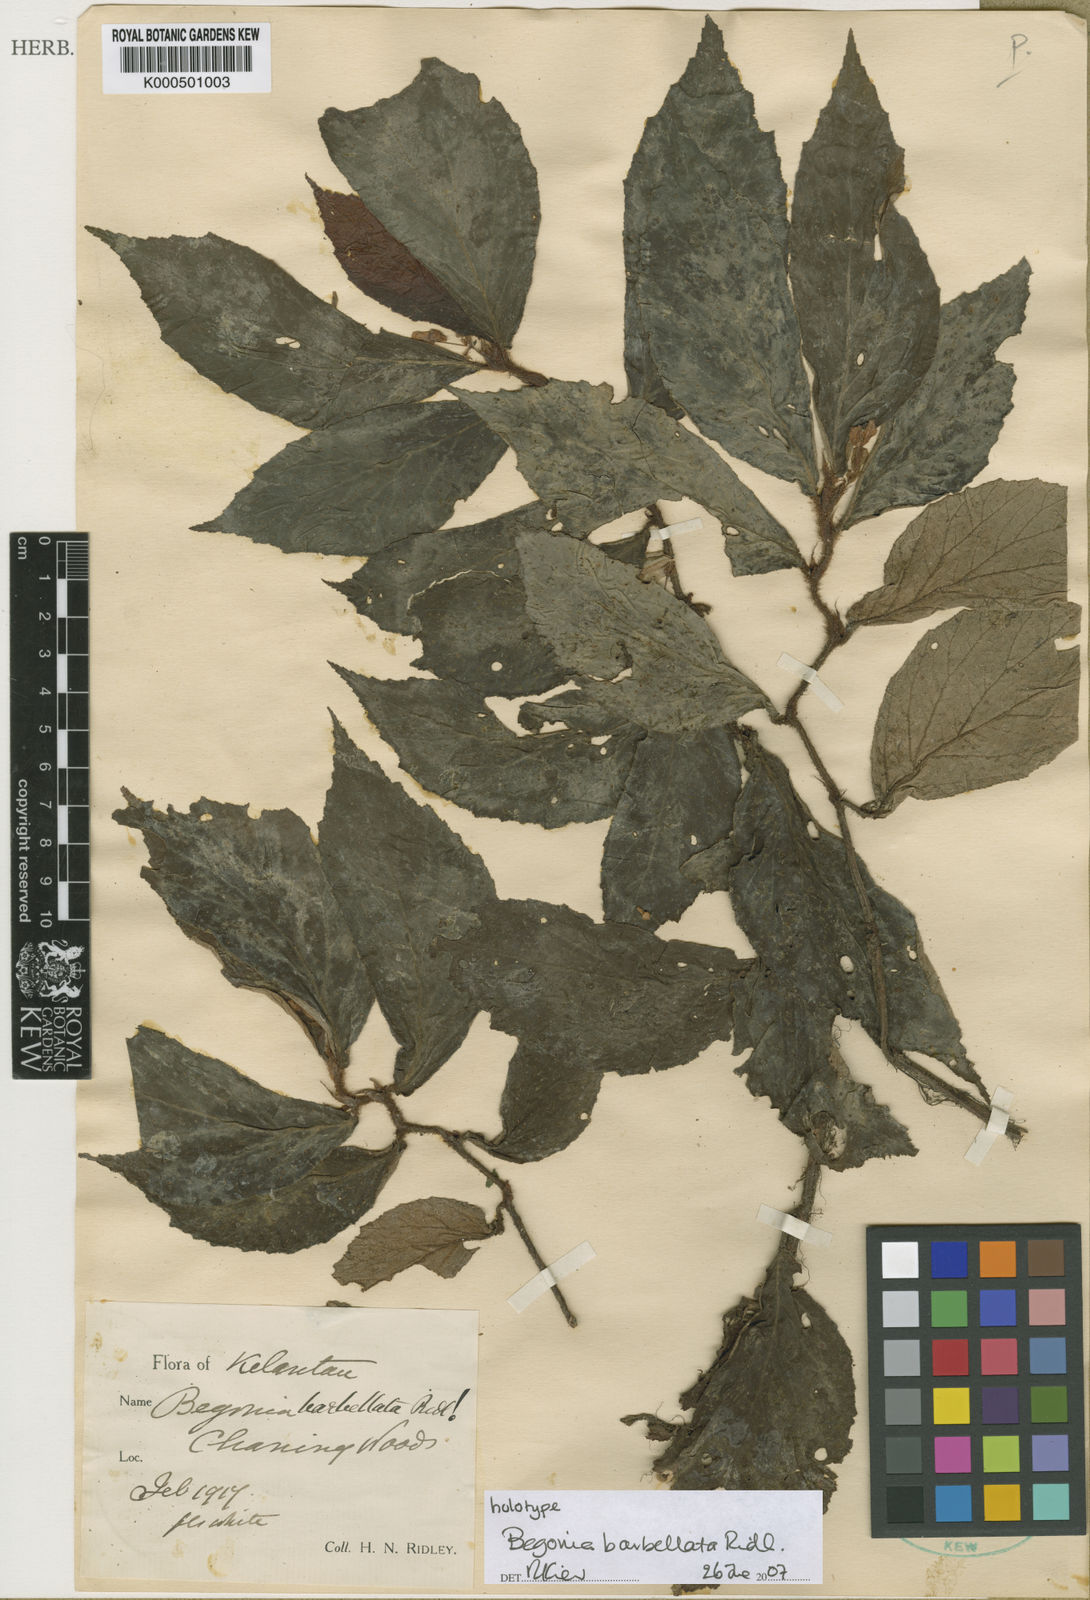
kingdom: Plantae
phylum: Tracheophyta
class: Magnoliopsida
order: Cucurbitales
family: Begoniaceae
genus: Begonia
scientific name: Begonia barbellata
